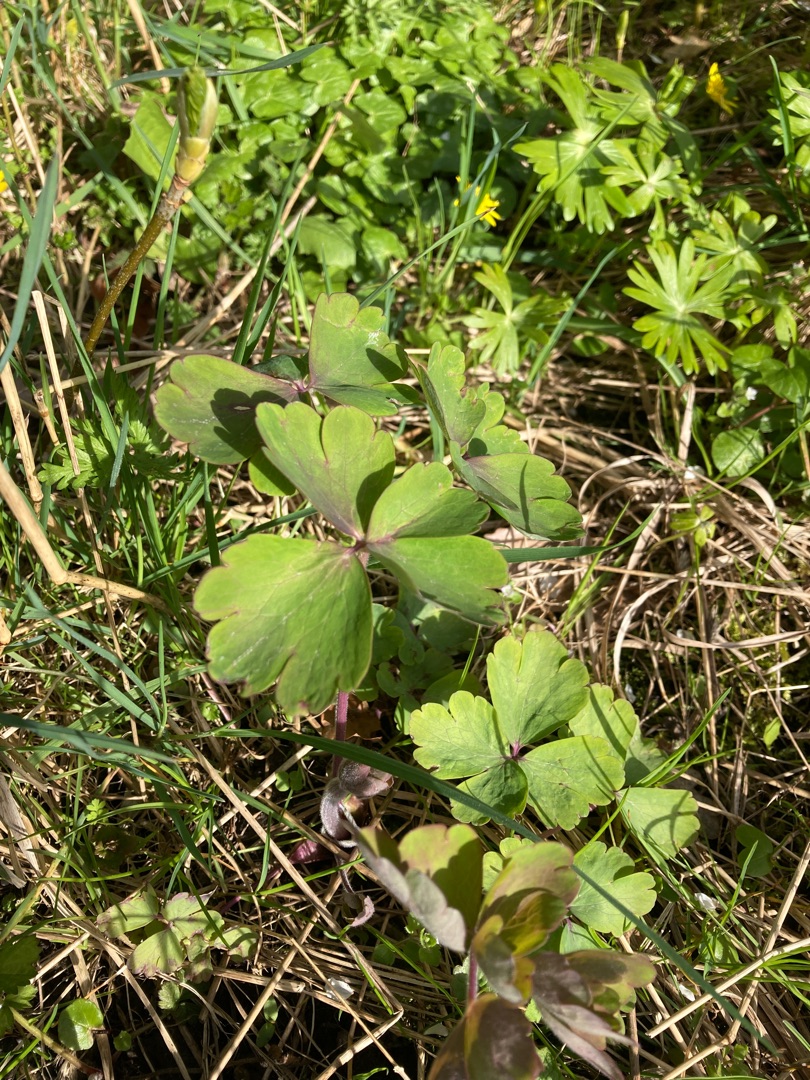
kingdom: Plantae
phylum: Tracheophyta
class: Magnoliopsida
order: Ranunculales
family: Ranunculaceae
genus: Aquilegia
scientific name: Aquilegia vulgaris
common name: Akeleje
